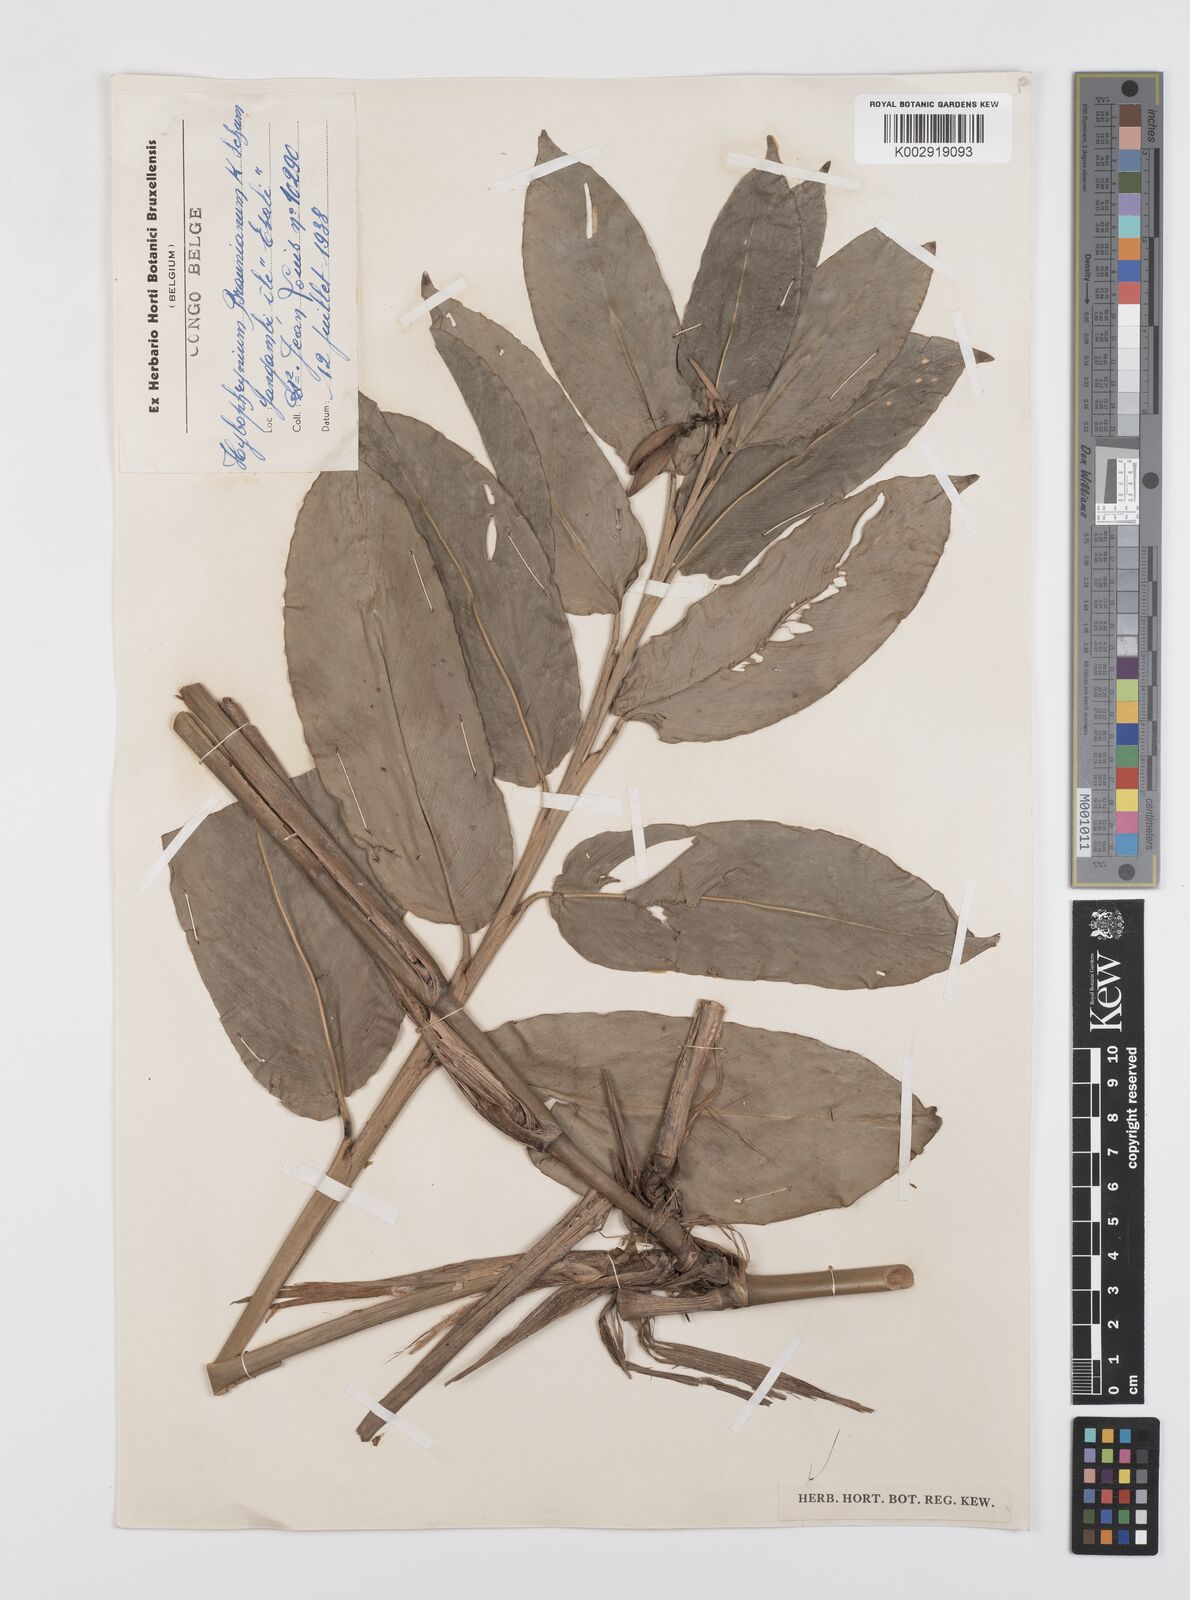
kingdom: Plantae
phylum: Tracheophyta
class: Liliopsida
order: Zingiberales
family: Marantaceae
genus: Trachyphrynium
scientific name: Trachyphrynium braunianum
